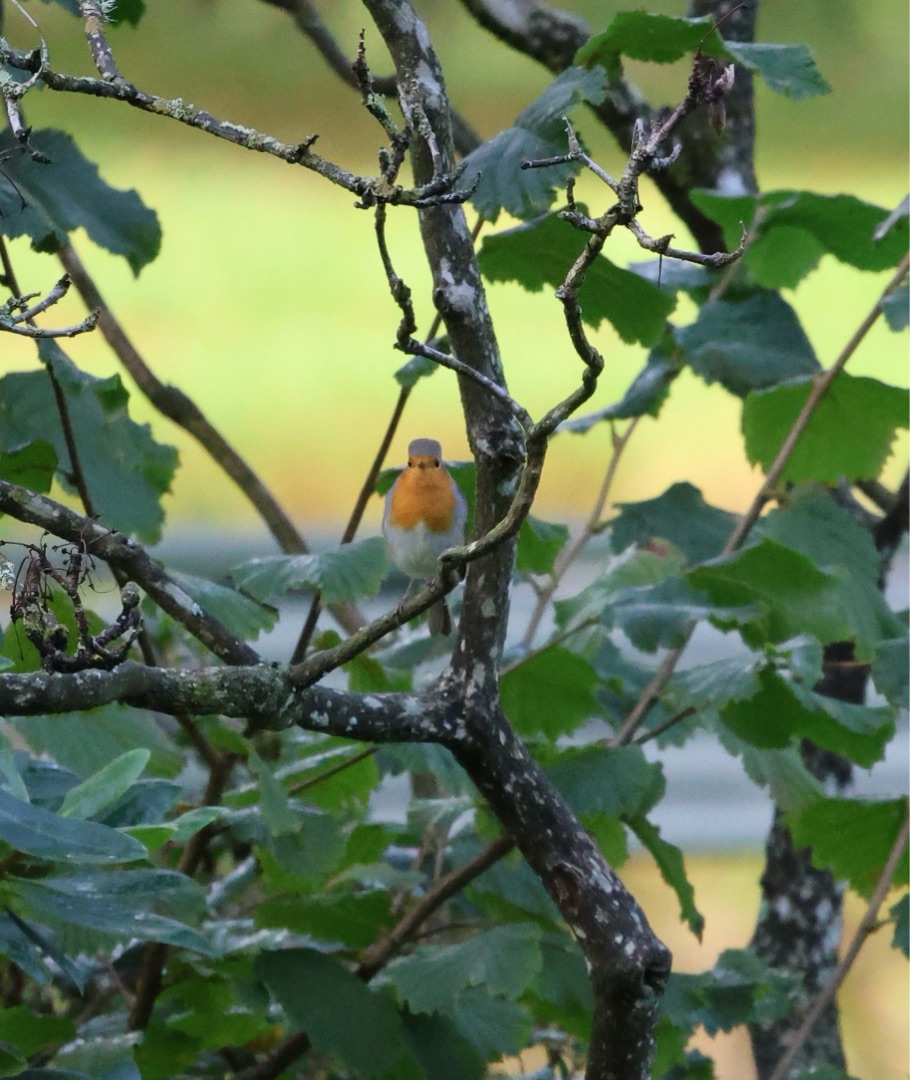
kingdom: Animalia
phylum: Chordata
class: Aves
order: Passeriformes
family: Muscicapidae
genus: Erithacus
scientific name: Erithacus rubecula
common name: Rødhals/rødkælk
